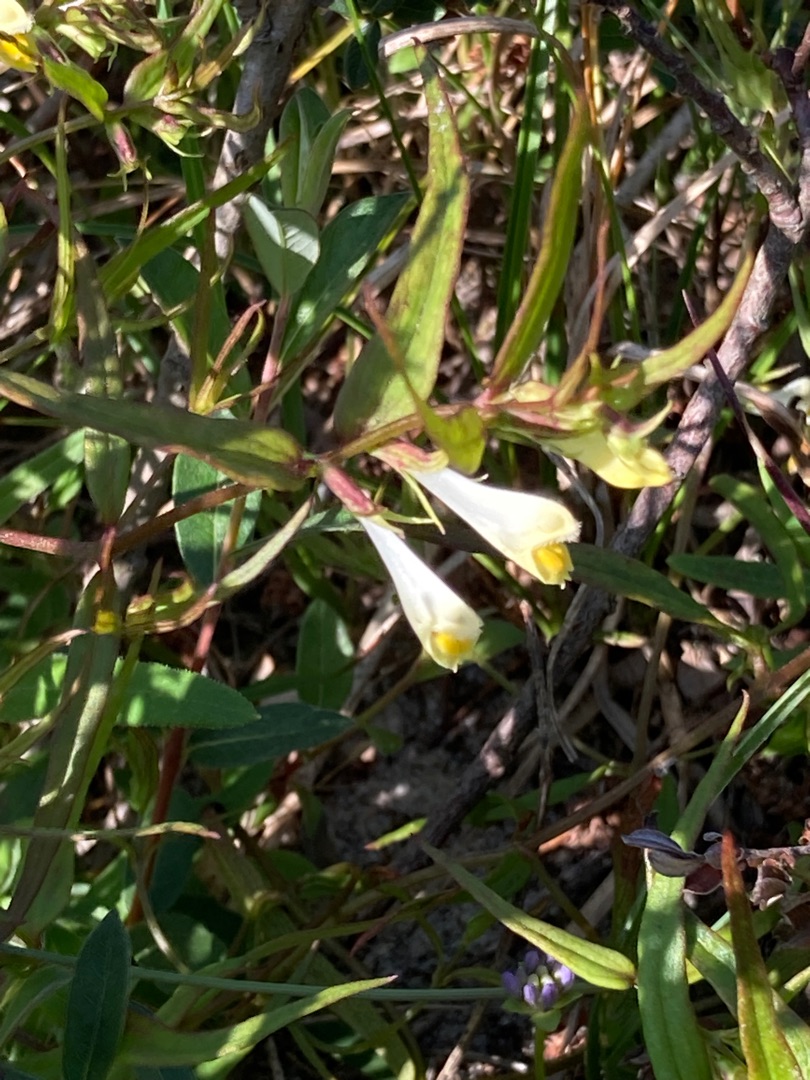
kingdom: Plantae
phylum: Tracheophyta
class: Magnoliopsida
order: Lamiales
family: Orobanchaceae
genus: Melampyrum
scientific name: Melampyrum pratense
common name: Almindelig kohvede
